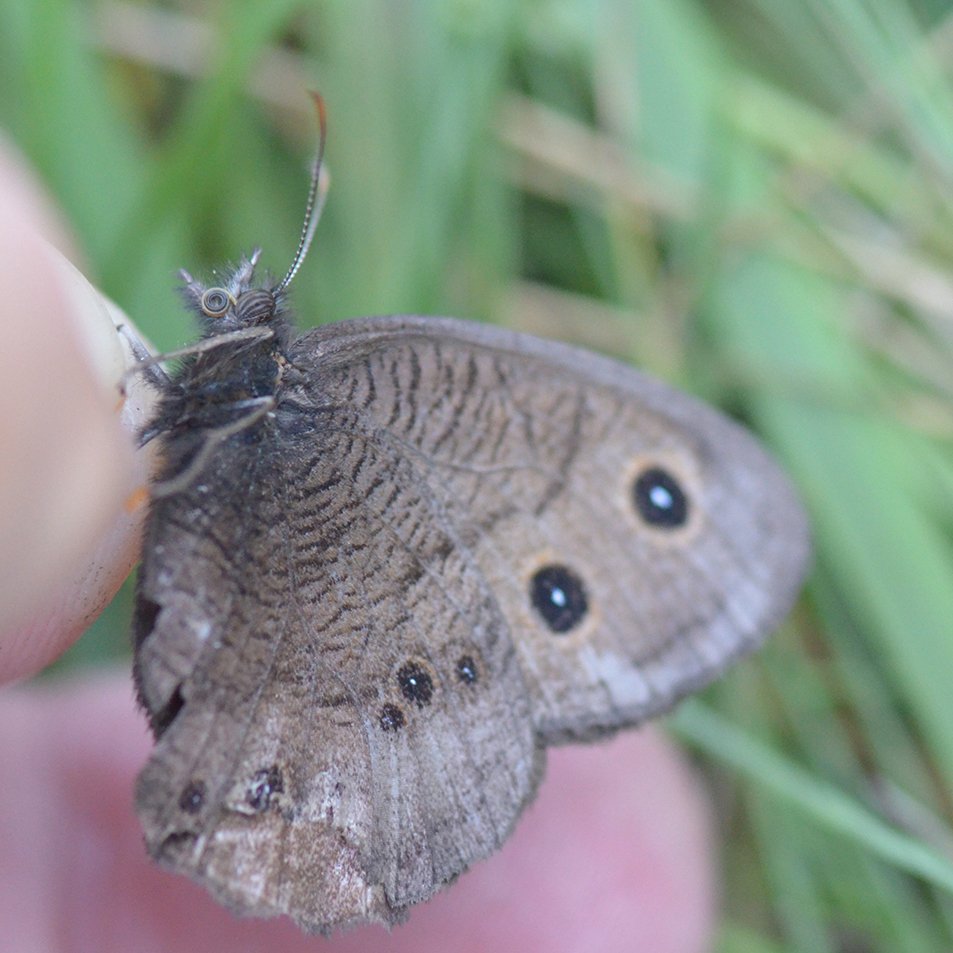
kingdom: Animalia
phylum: Arthropoda
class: Insecta
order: Lepidoptera
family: Nymphalidae
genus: Cercyonis
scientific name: Cercyonis pegala
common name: Common Wood-Nymph
